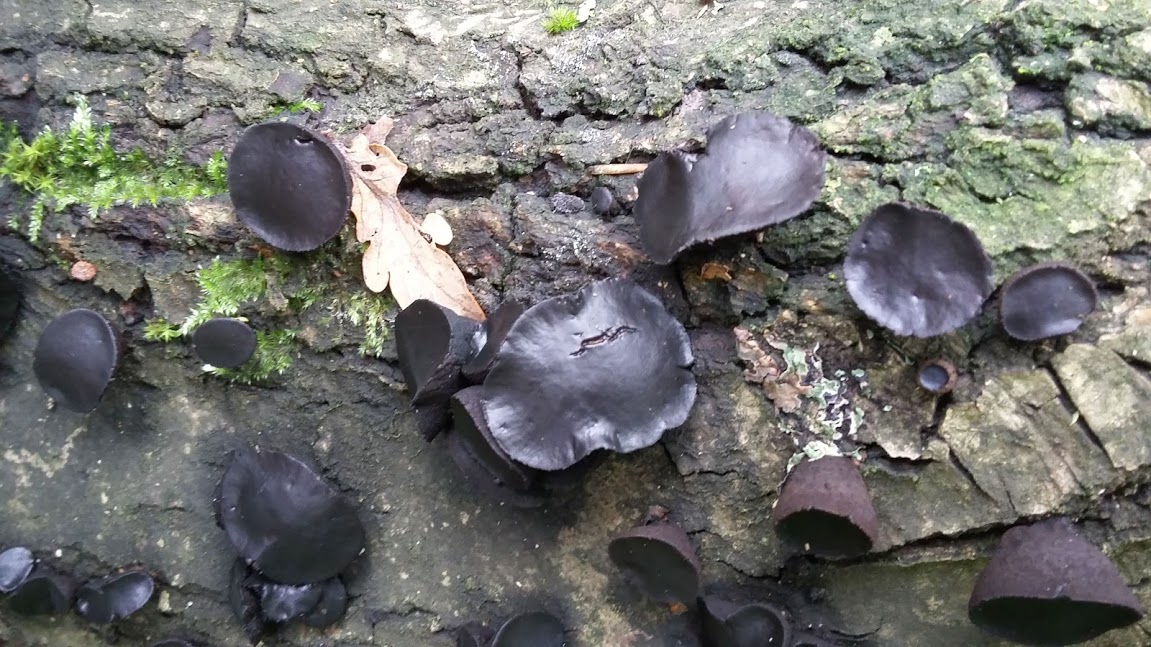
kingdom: Fungi
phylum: Ascomycota
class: Leotiomycetes
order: Phacidiales
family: Phacidiaceae
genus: Bulgaria
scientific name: Bulgaria inquinans
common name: afsmittende topsvamp
